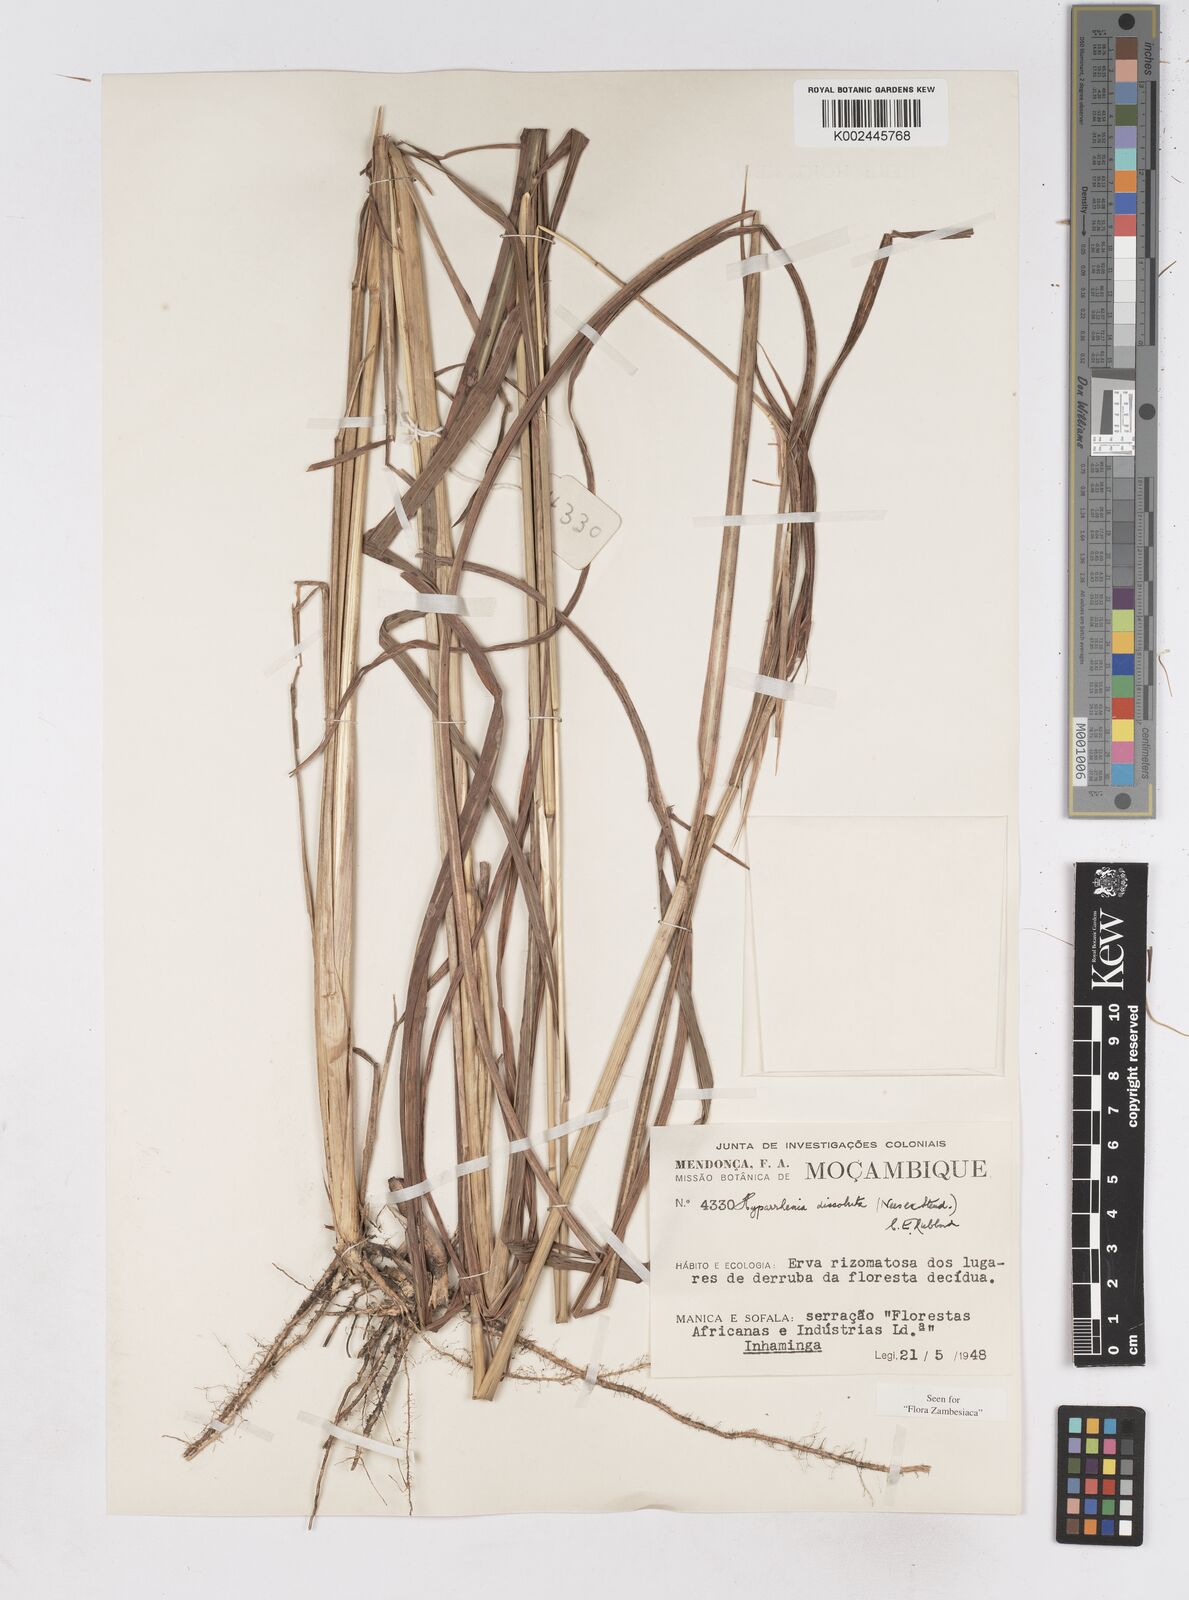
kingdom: Plantae
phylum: Tracheophyta
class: Liliopsida
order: Poales
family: Poaceae
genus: Hyperthelia
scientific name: Hyperthelia dissoluta
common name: Yellow thatching grass
